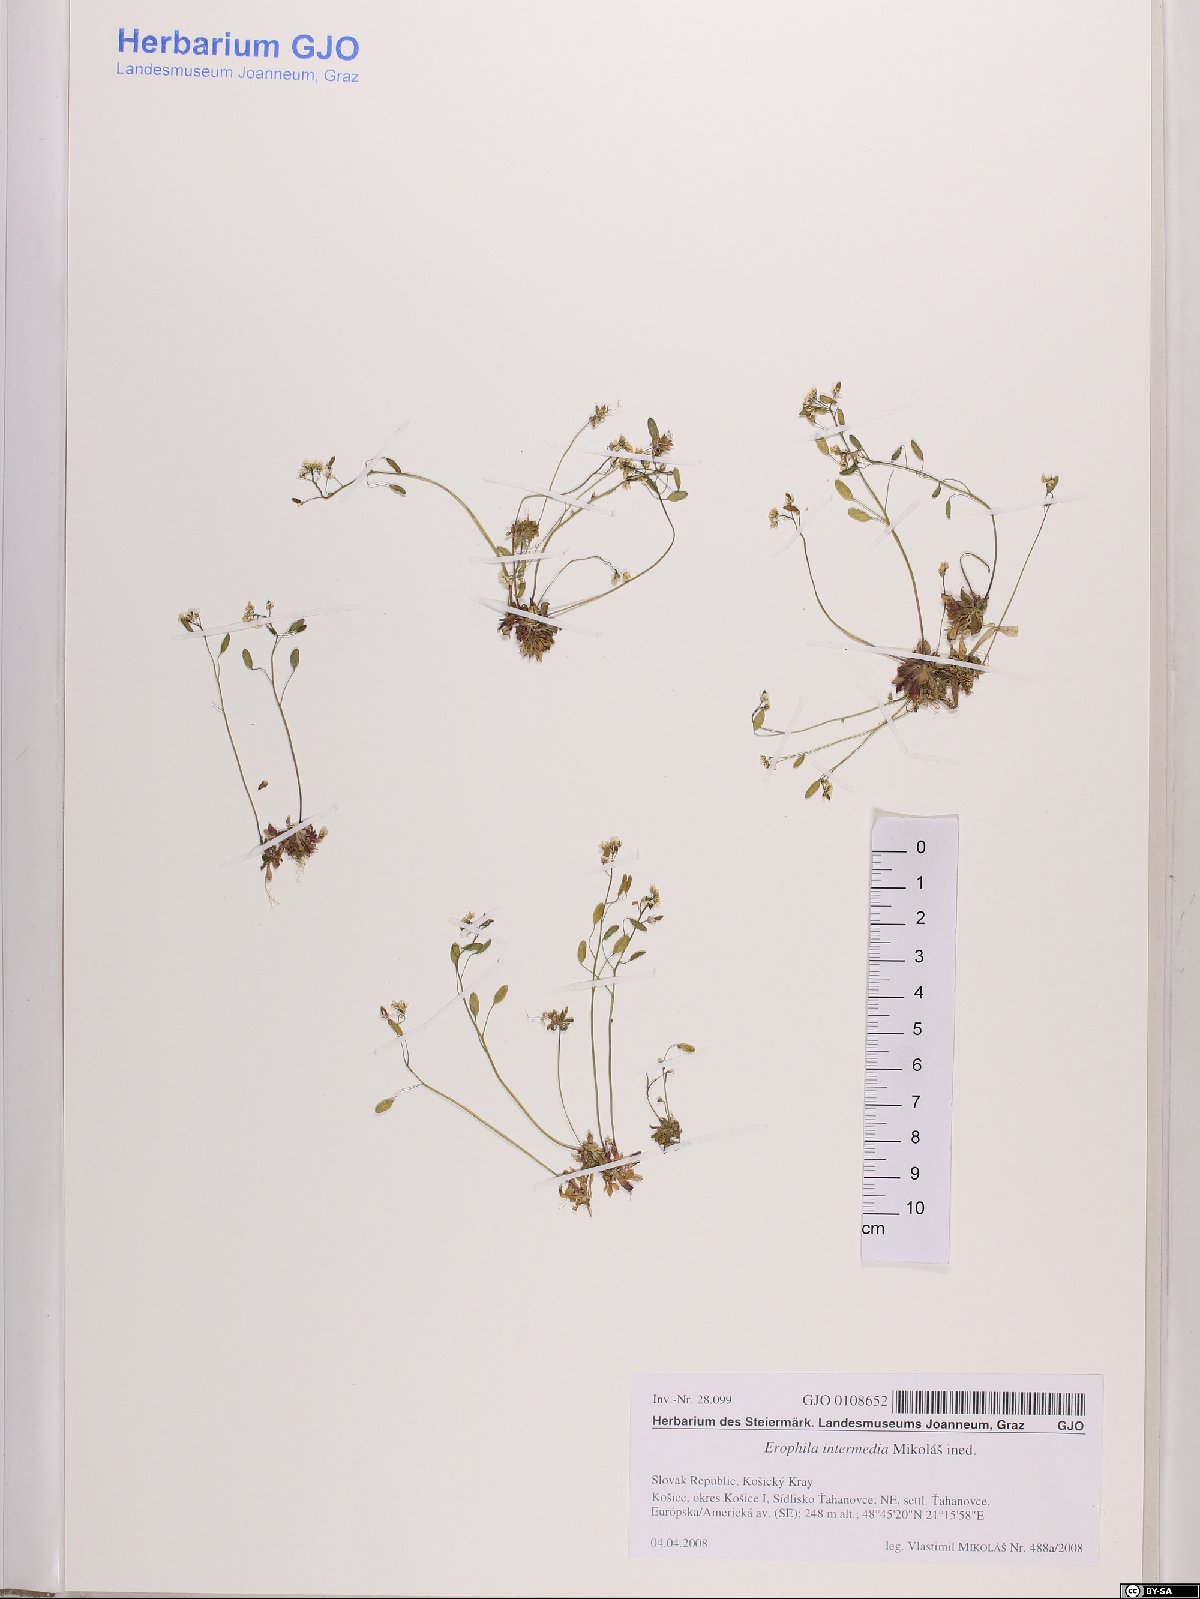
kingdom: Plantae
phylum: Tracheophyta
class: Magnoliopsida
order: Brassicales
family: Brassicaceae
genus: Draba
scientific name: Draba
